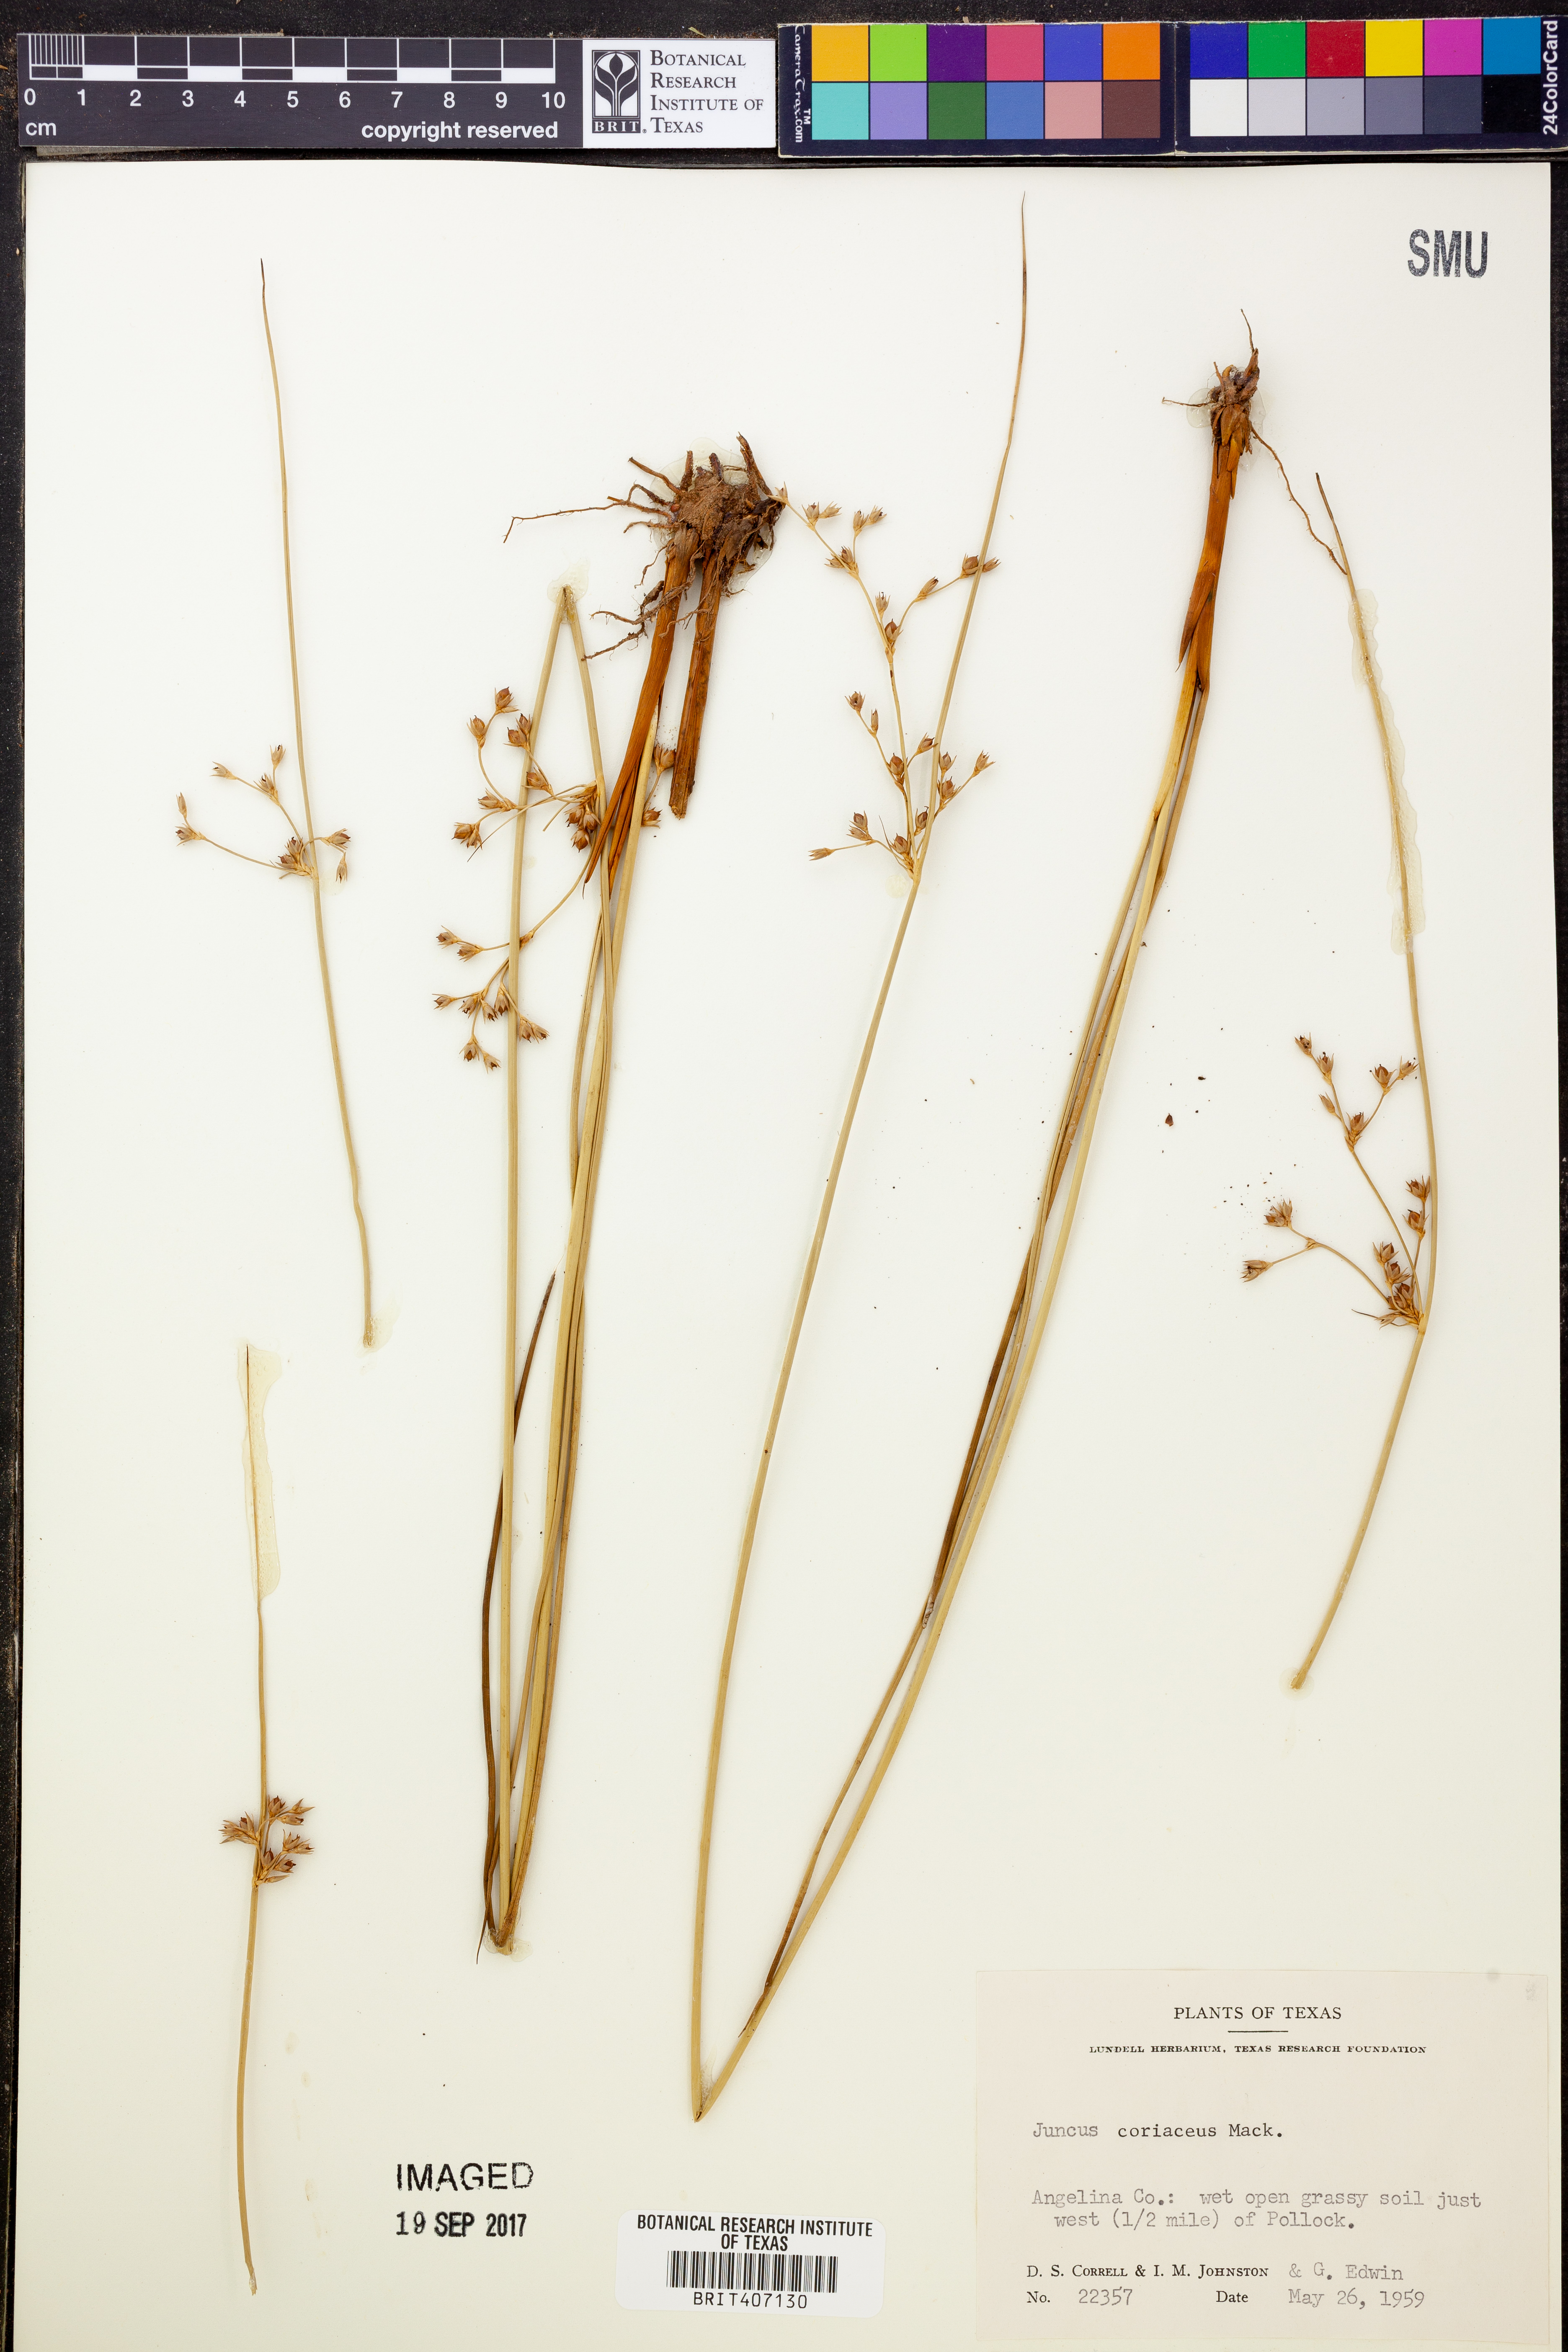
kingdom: Plantae
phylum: Tracheophyta
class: Liliopsida
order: Poales
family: Juncaceae
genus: Juncus
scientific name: Juncus coriaceus
